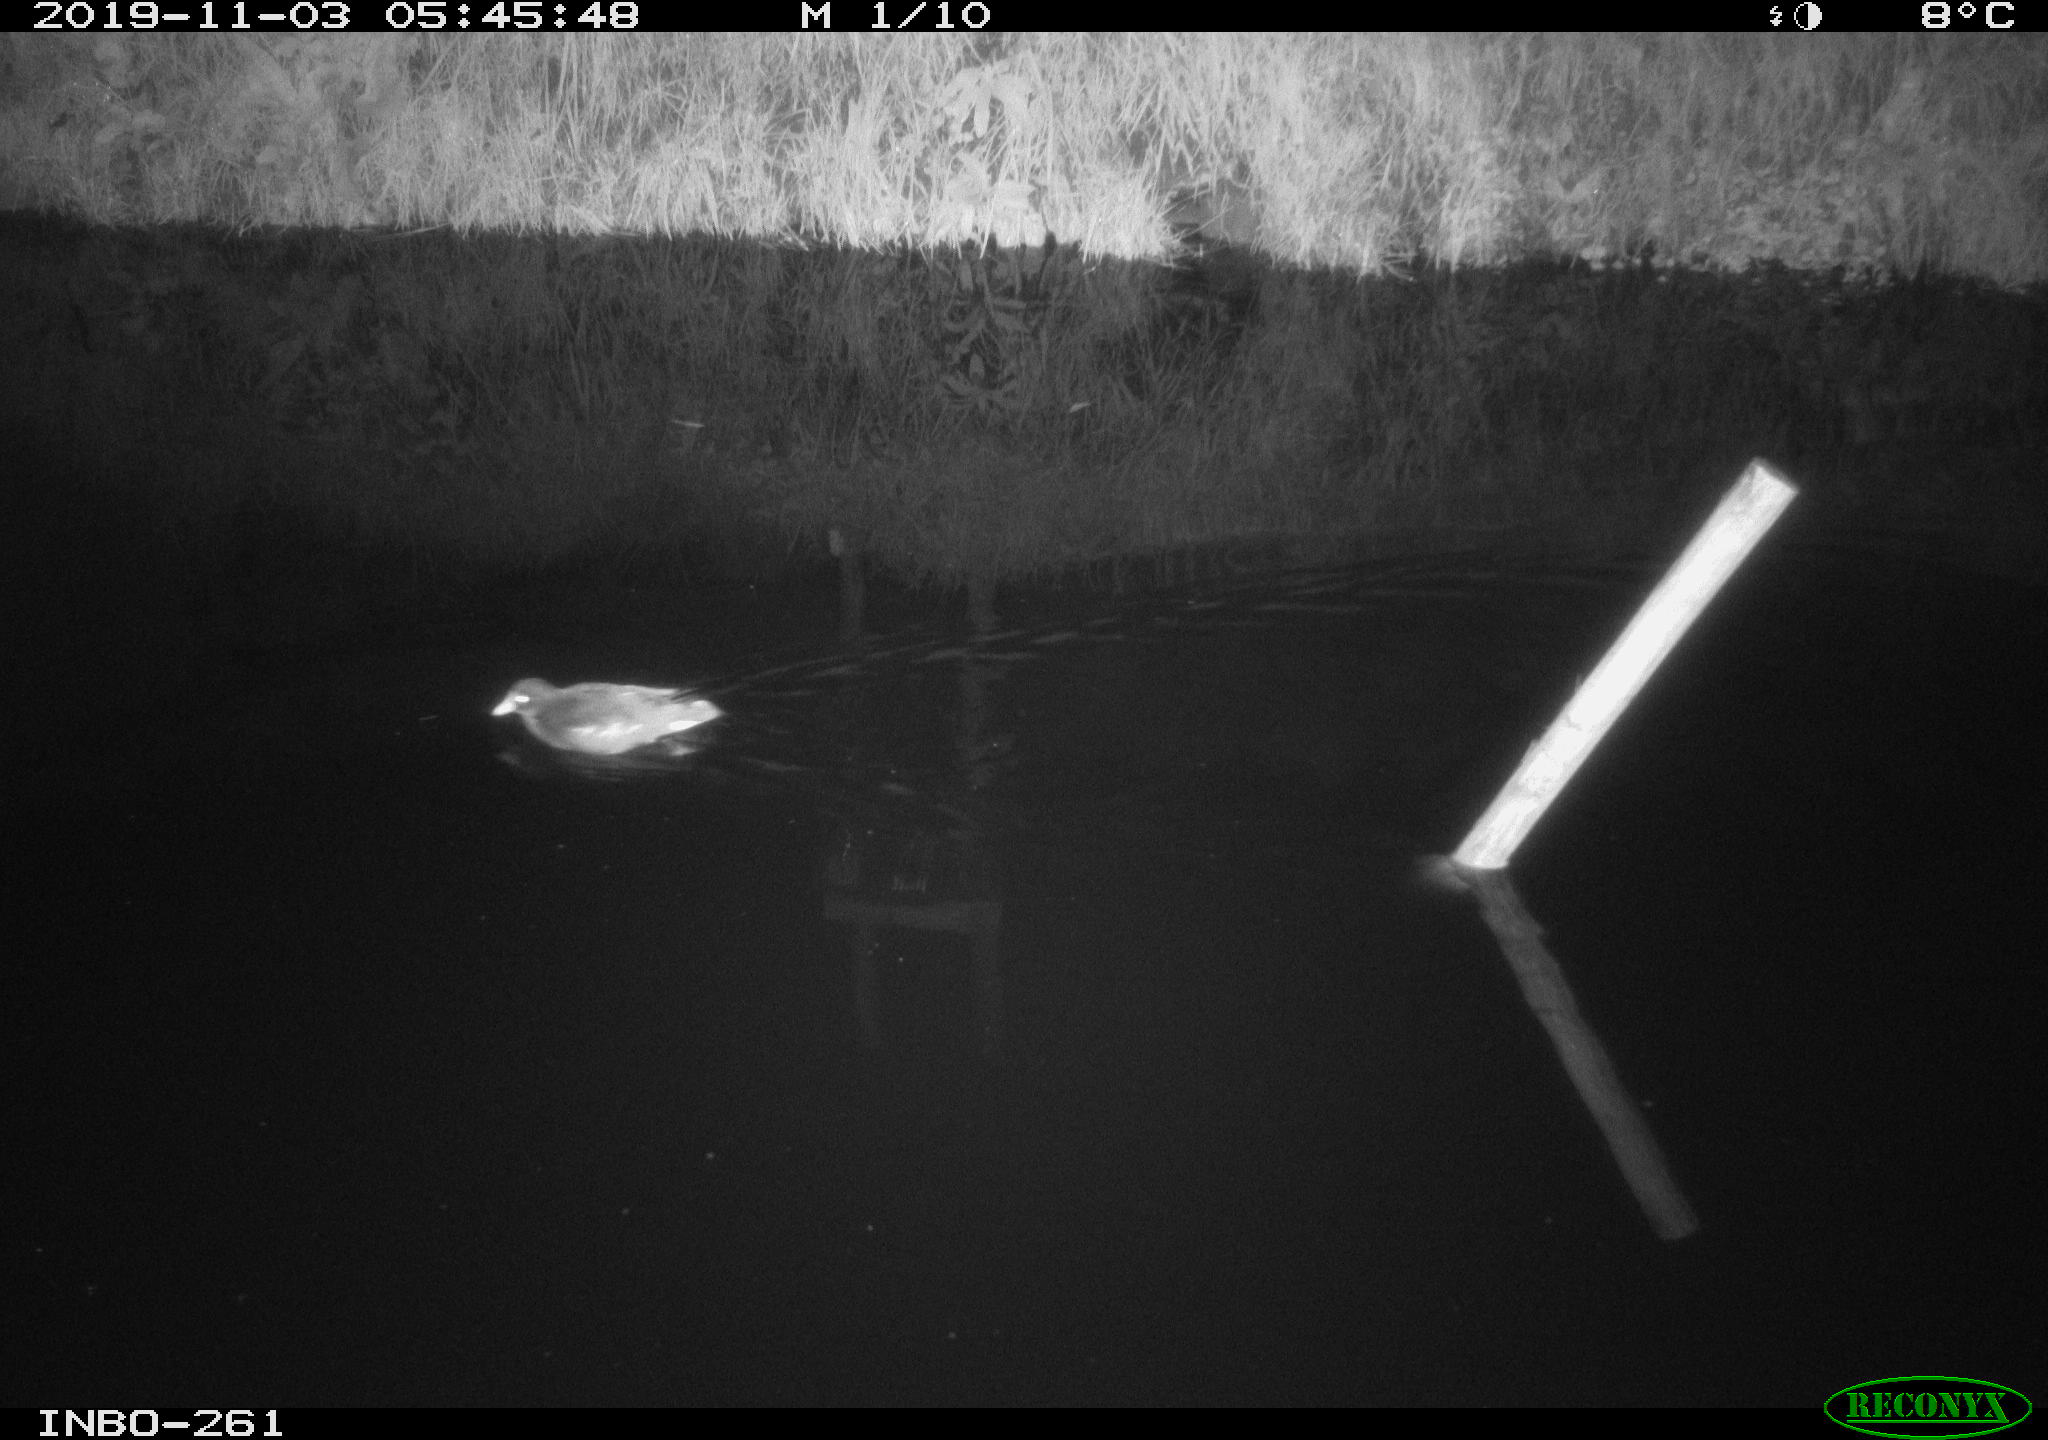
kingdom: Animalia
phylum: Chordata
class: Aves
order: Gruiformes
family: Rallidae
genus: Gallinula
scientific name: Gallinula chloropus
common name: Common moorhen
